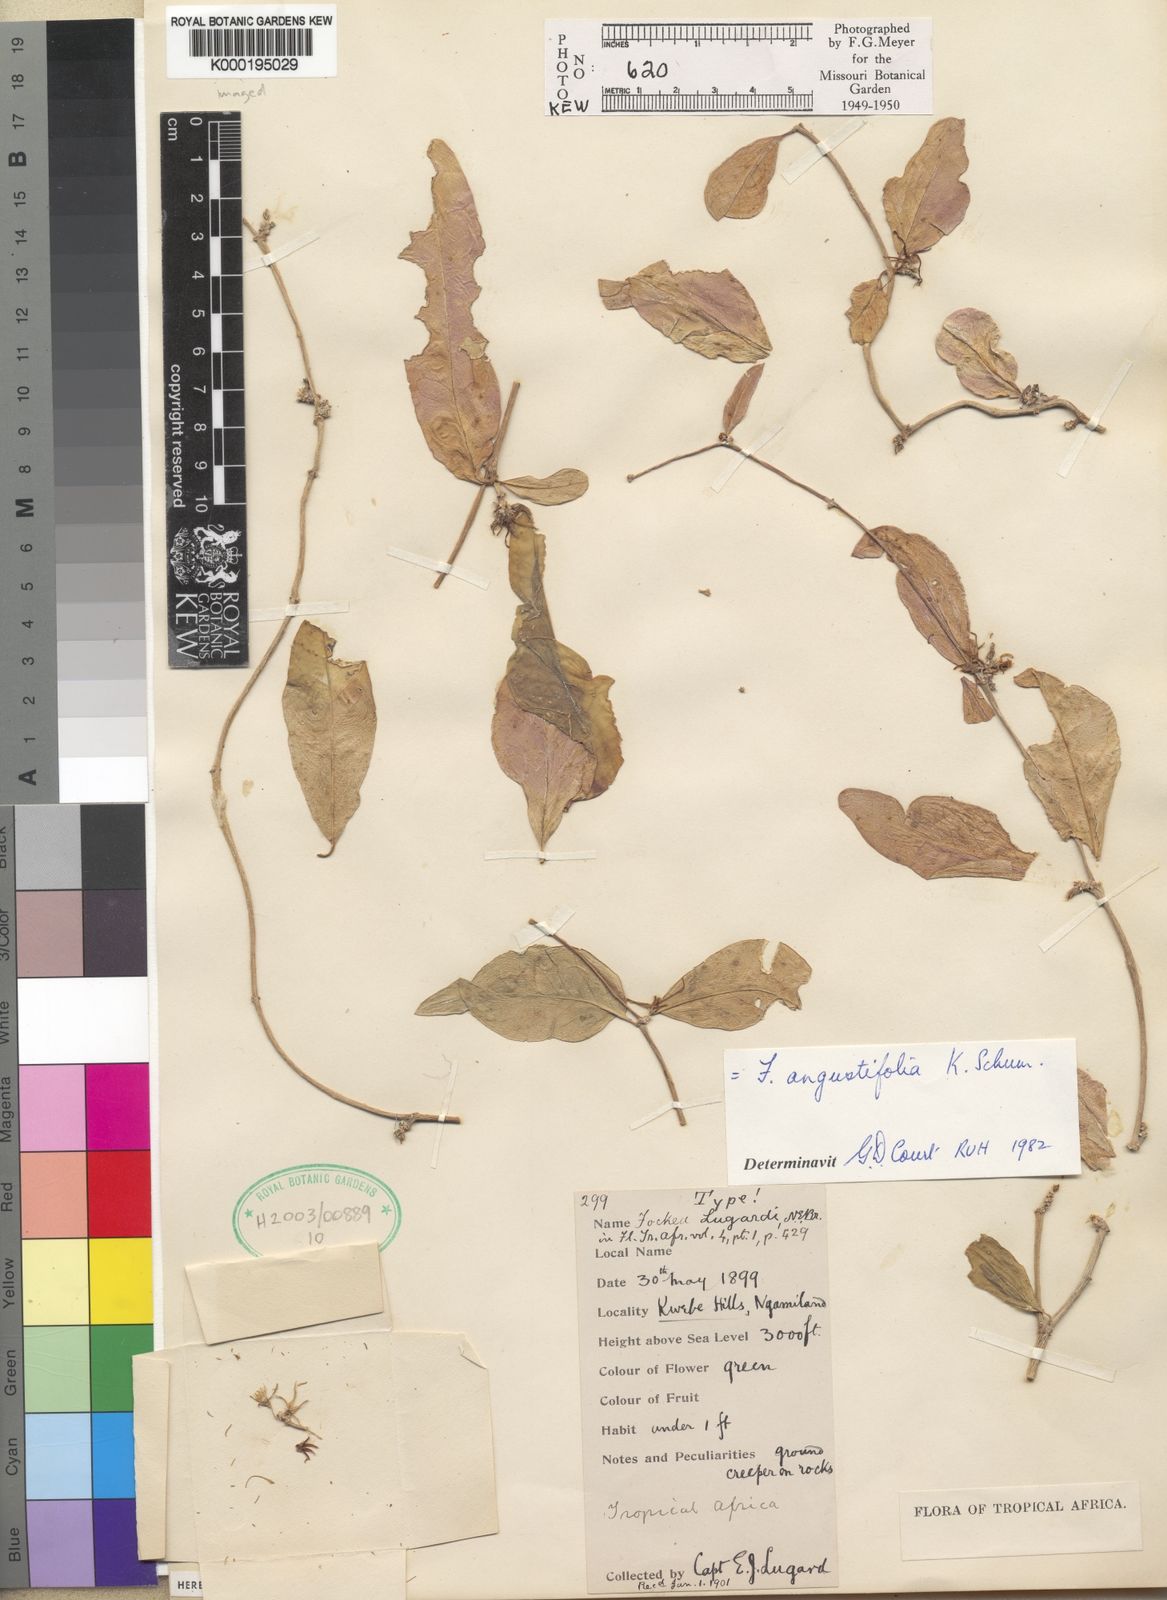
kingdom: Plantae
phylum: Tracheophyta
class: Magnoliopsida
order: Gentianales
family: Apocynaceae
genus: Fockea
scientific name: Fockea angustifolia
